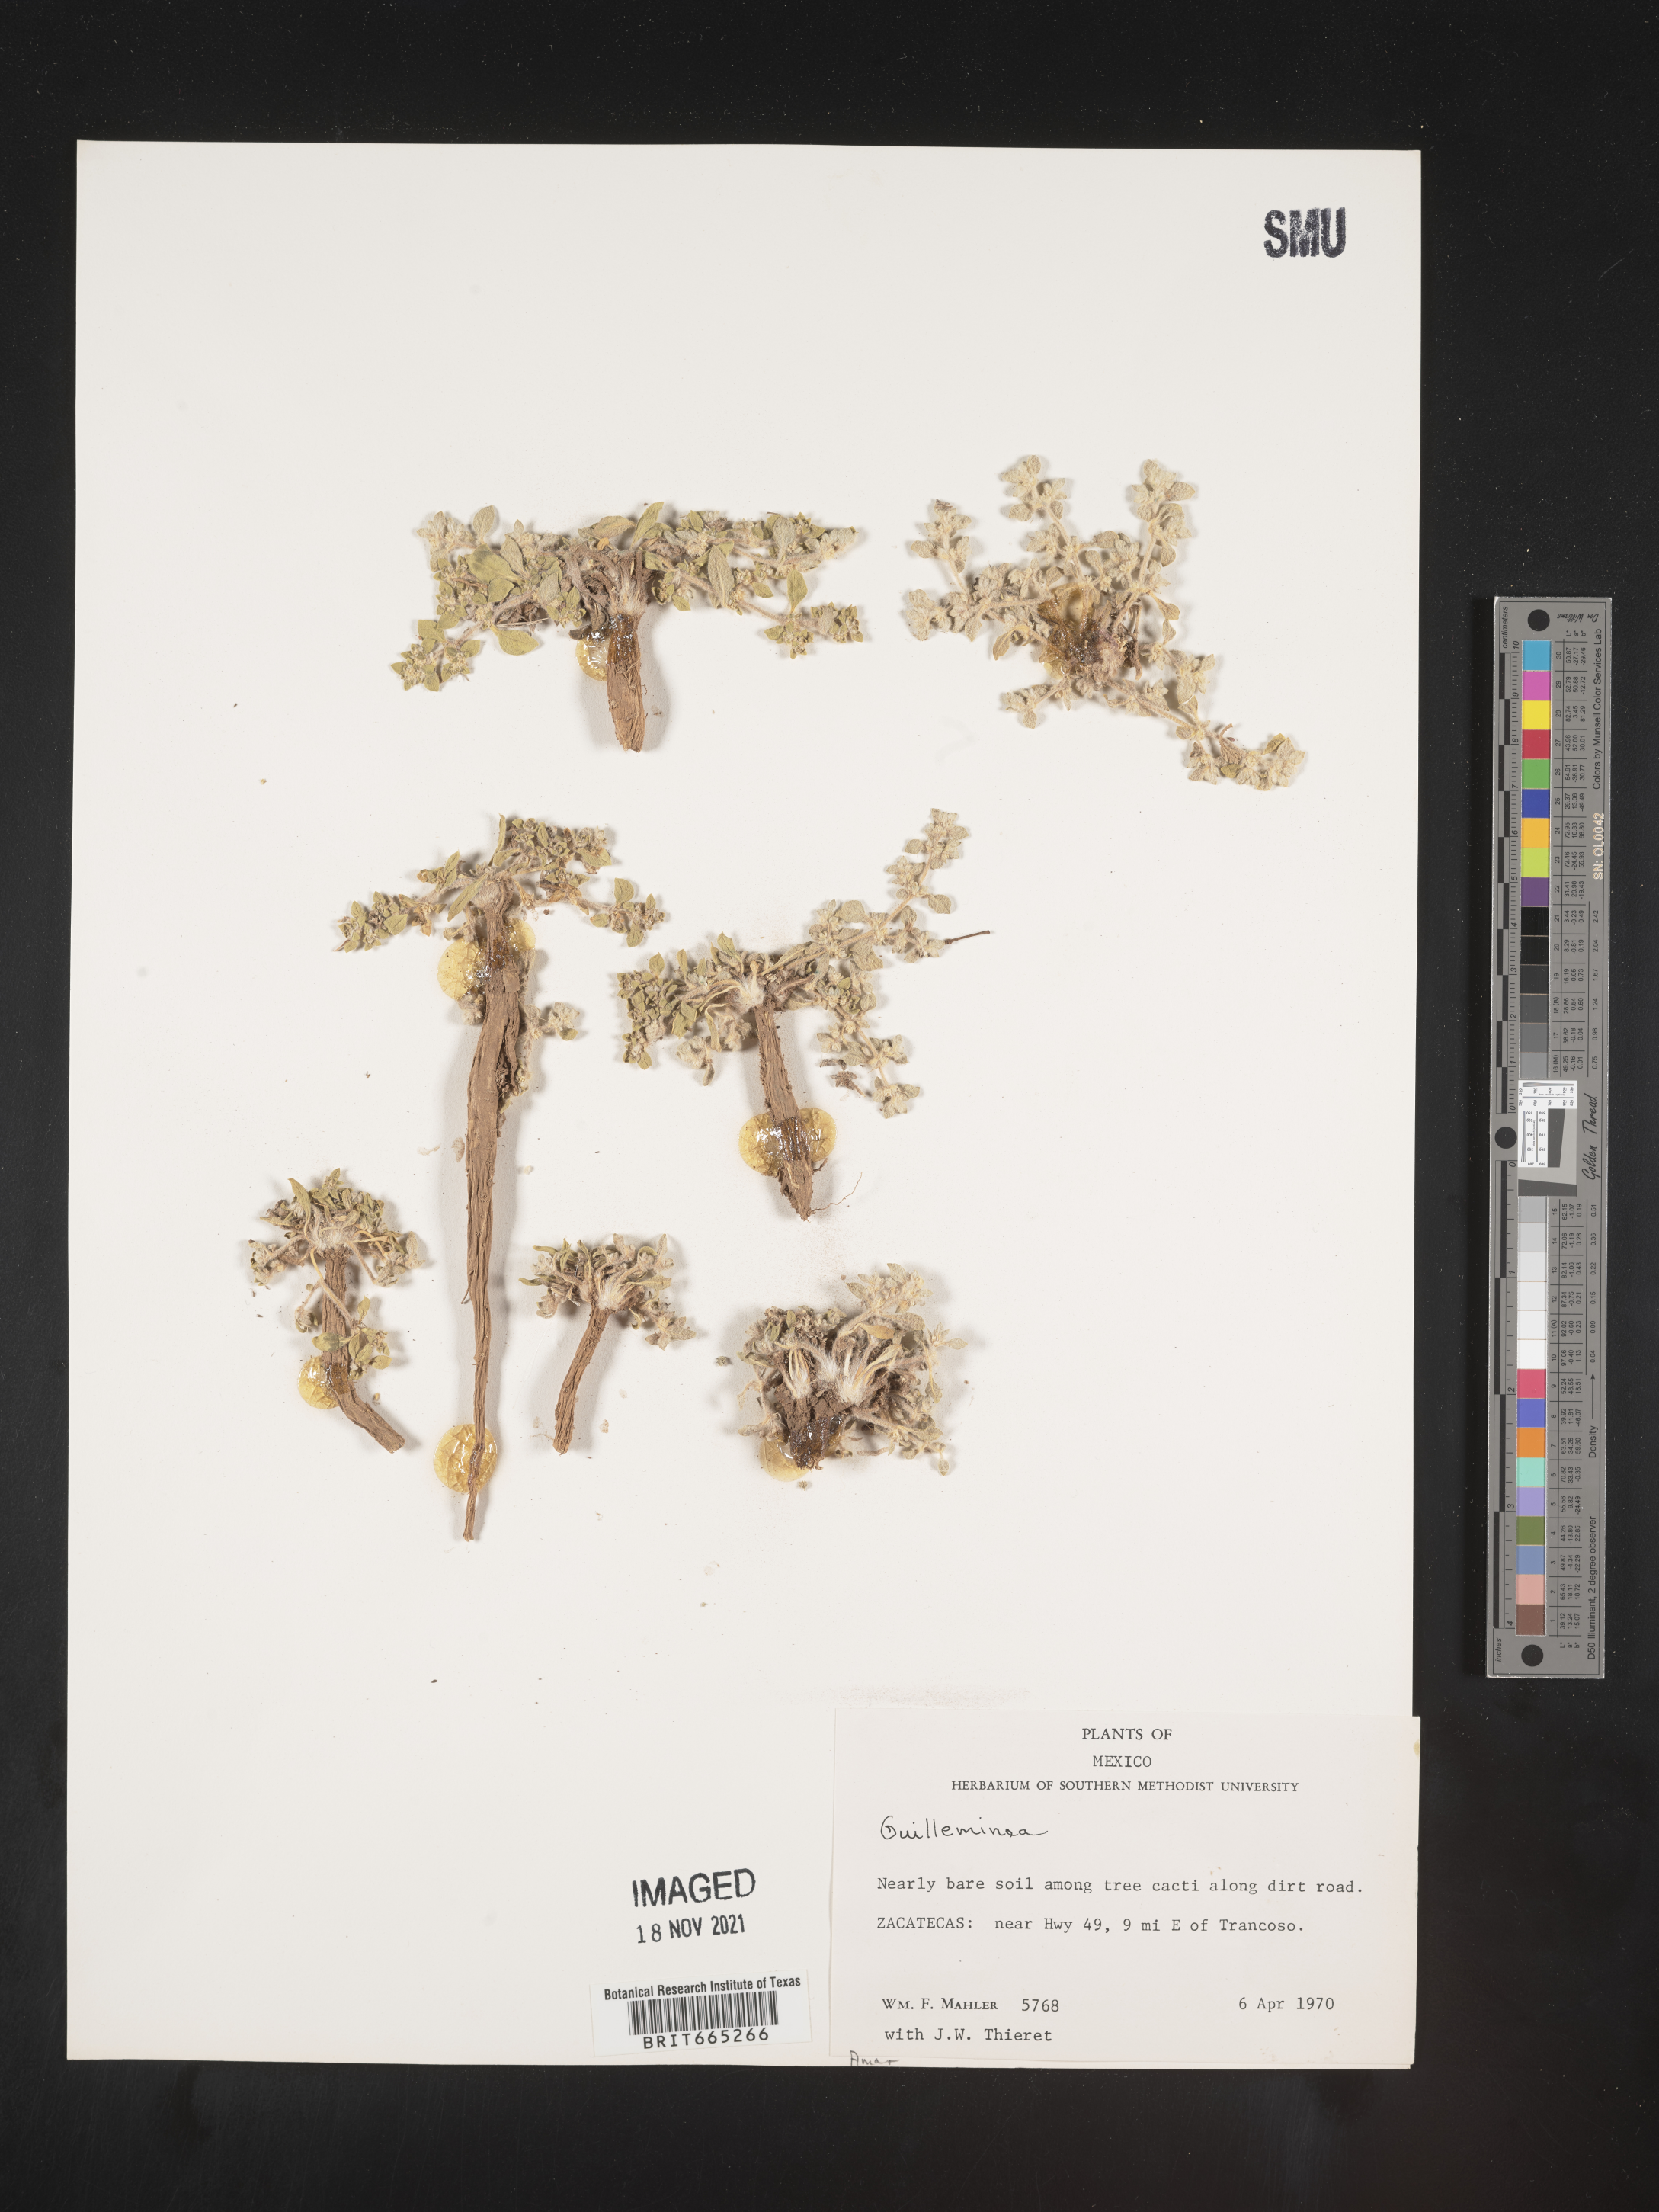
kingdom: Plantae
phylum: Tracheophyta
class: Magnoliopsida
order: Caryophyllales
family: Amaranthaceae
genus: Guilleminea
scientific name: Guilleminea densa
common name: Small matweed
